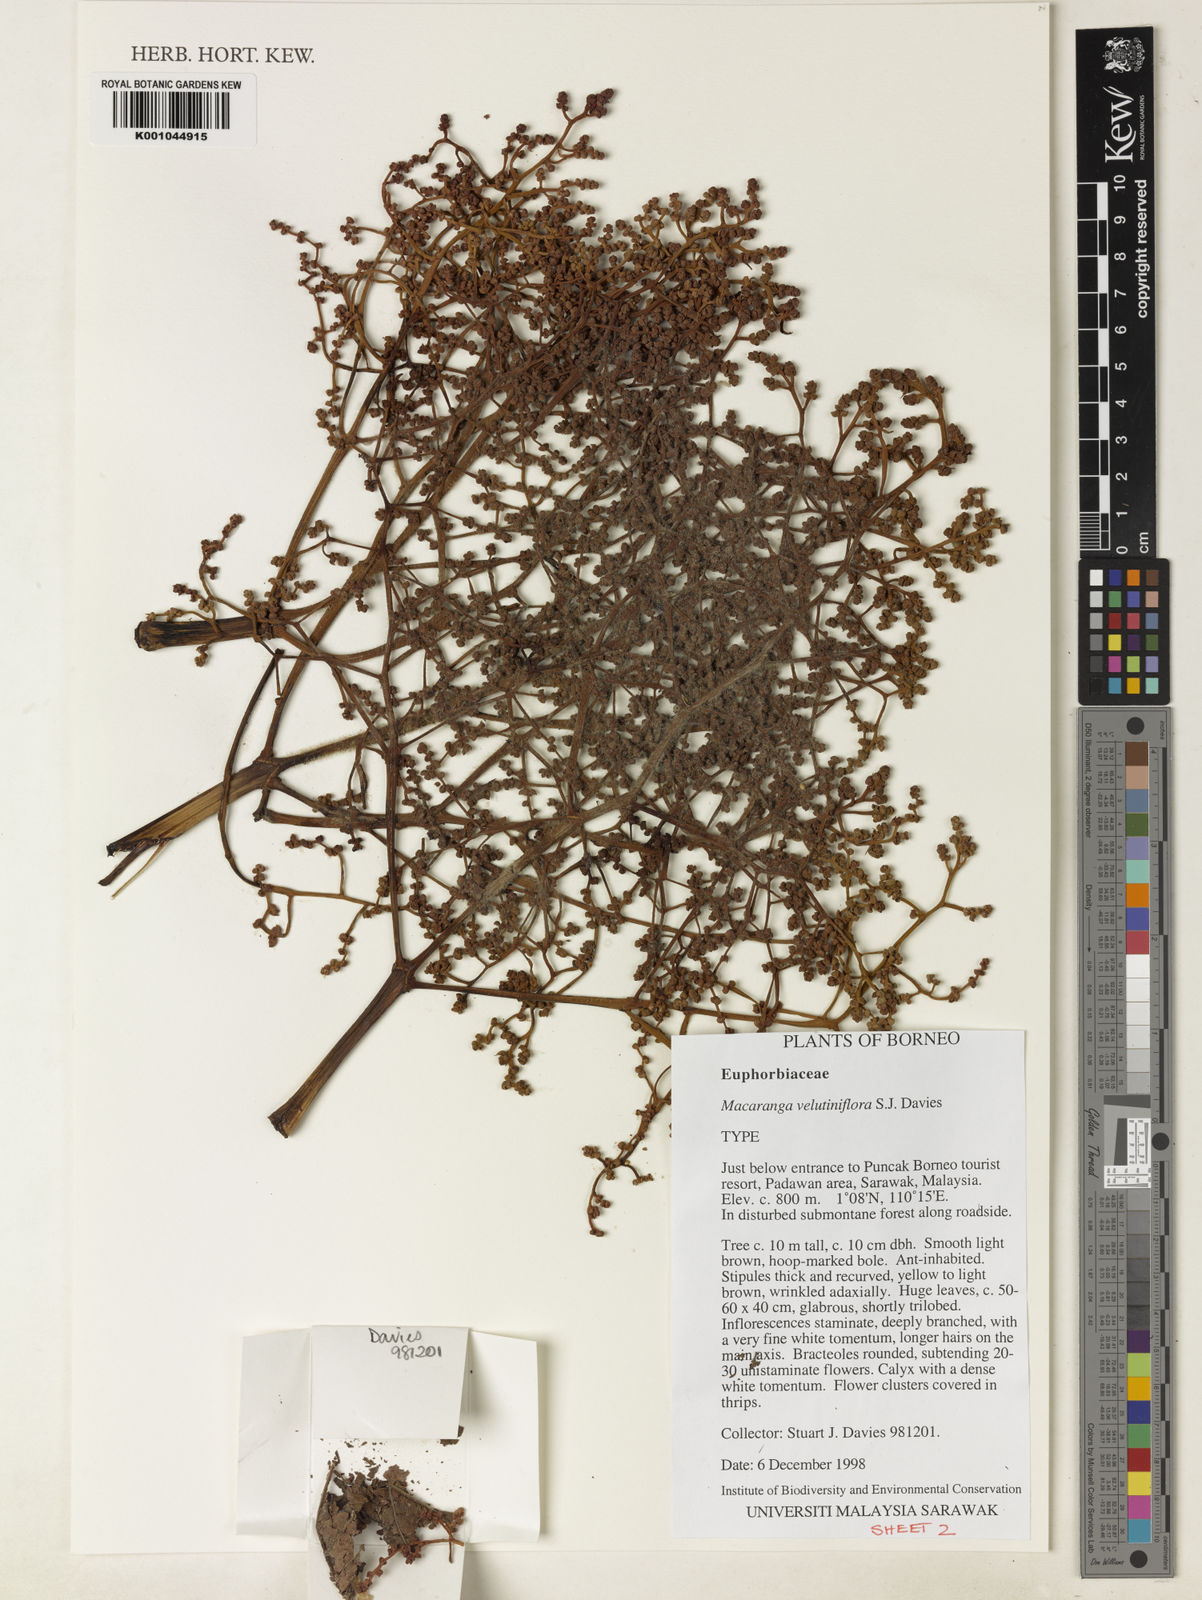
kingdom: Plantae
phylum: Tracheophyta
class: Magnoliopsida
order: Malpighiales
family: Euphorbiaceae
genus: Macaranga
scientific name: Macaranga velutiniflora
